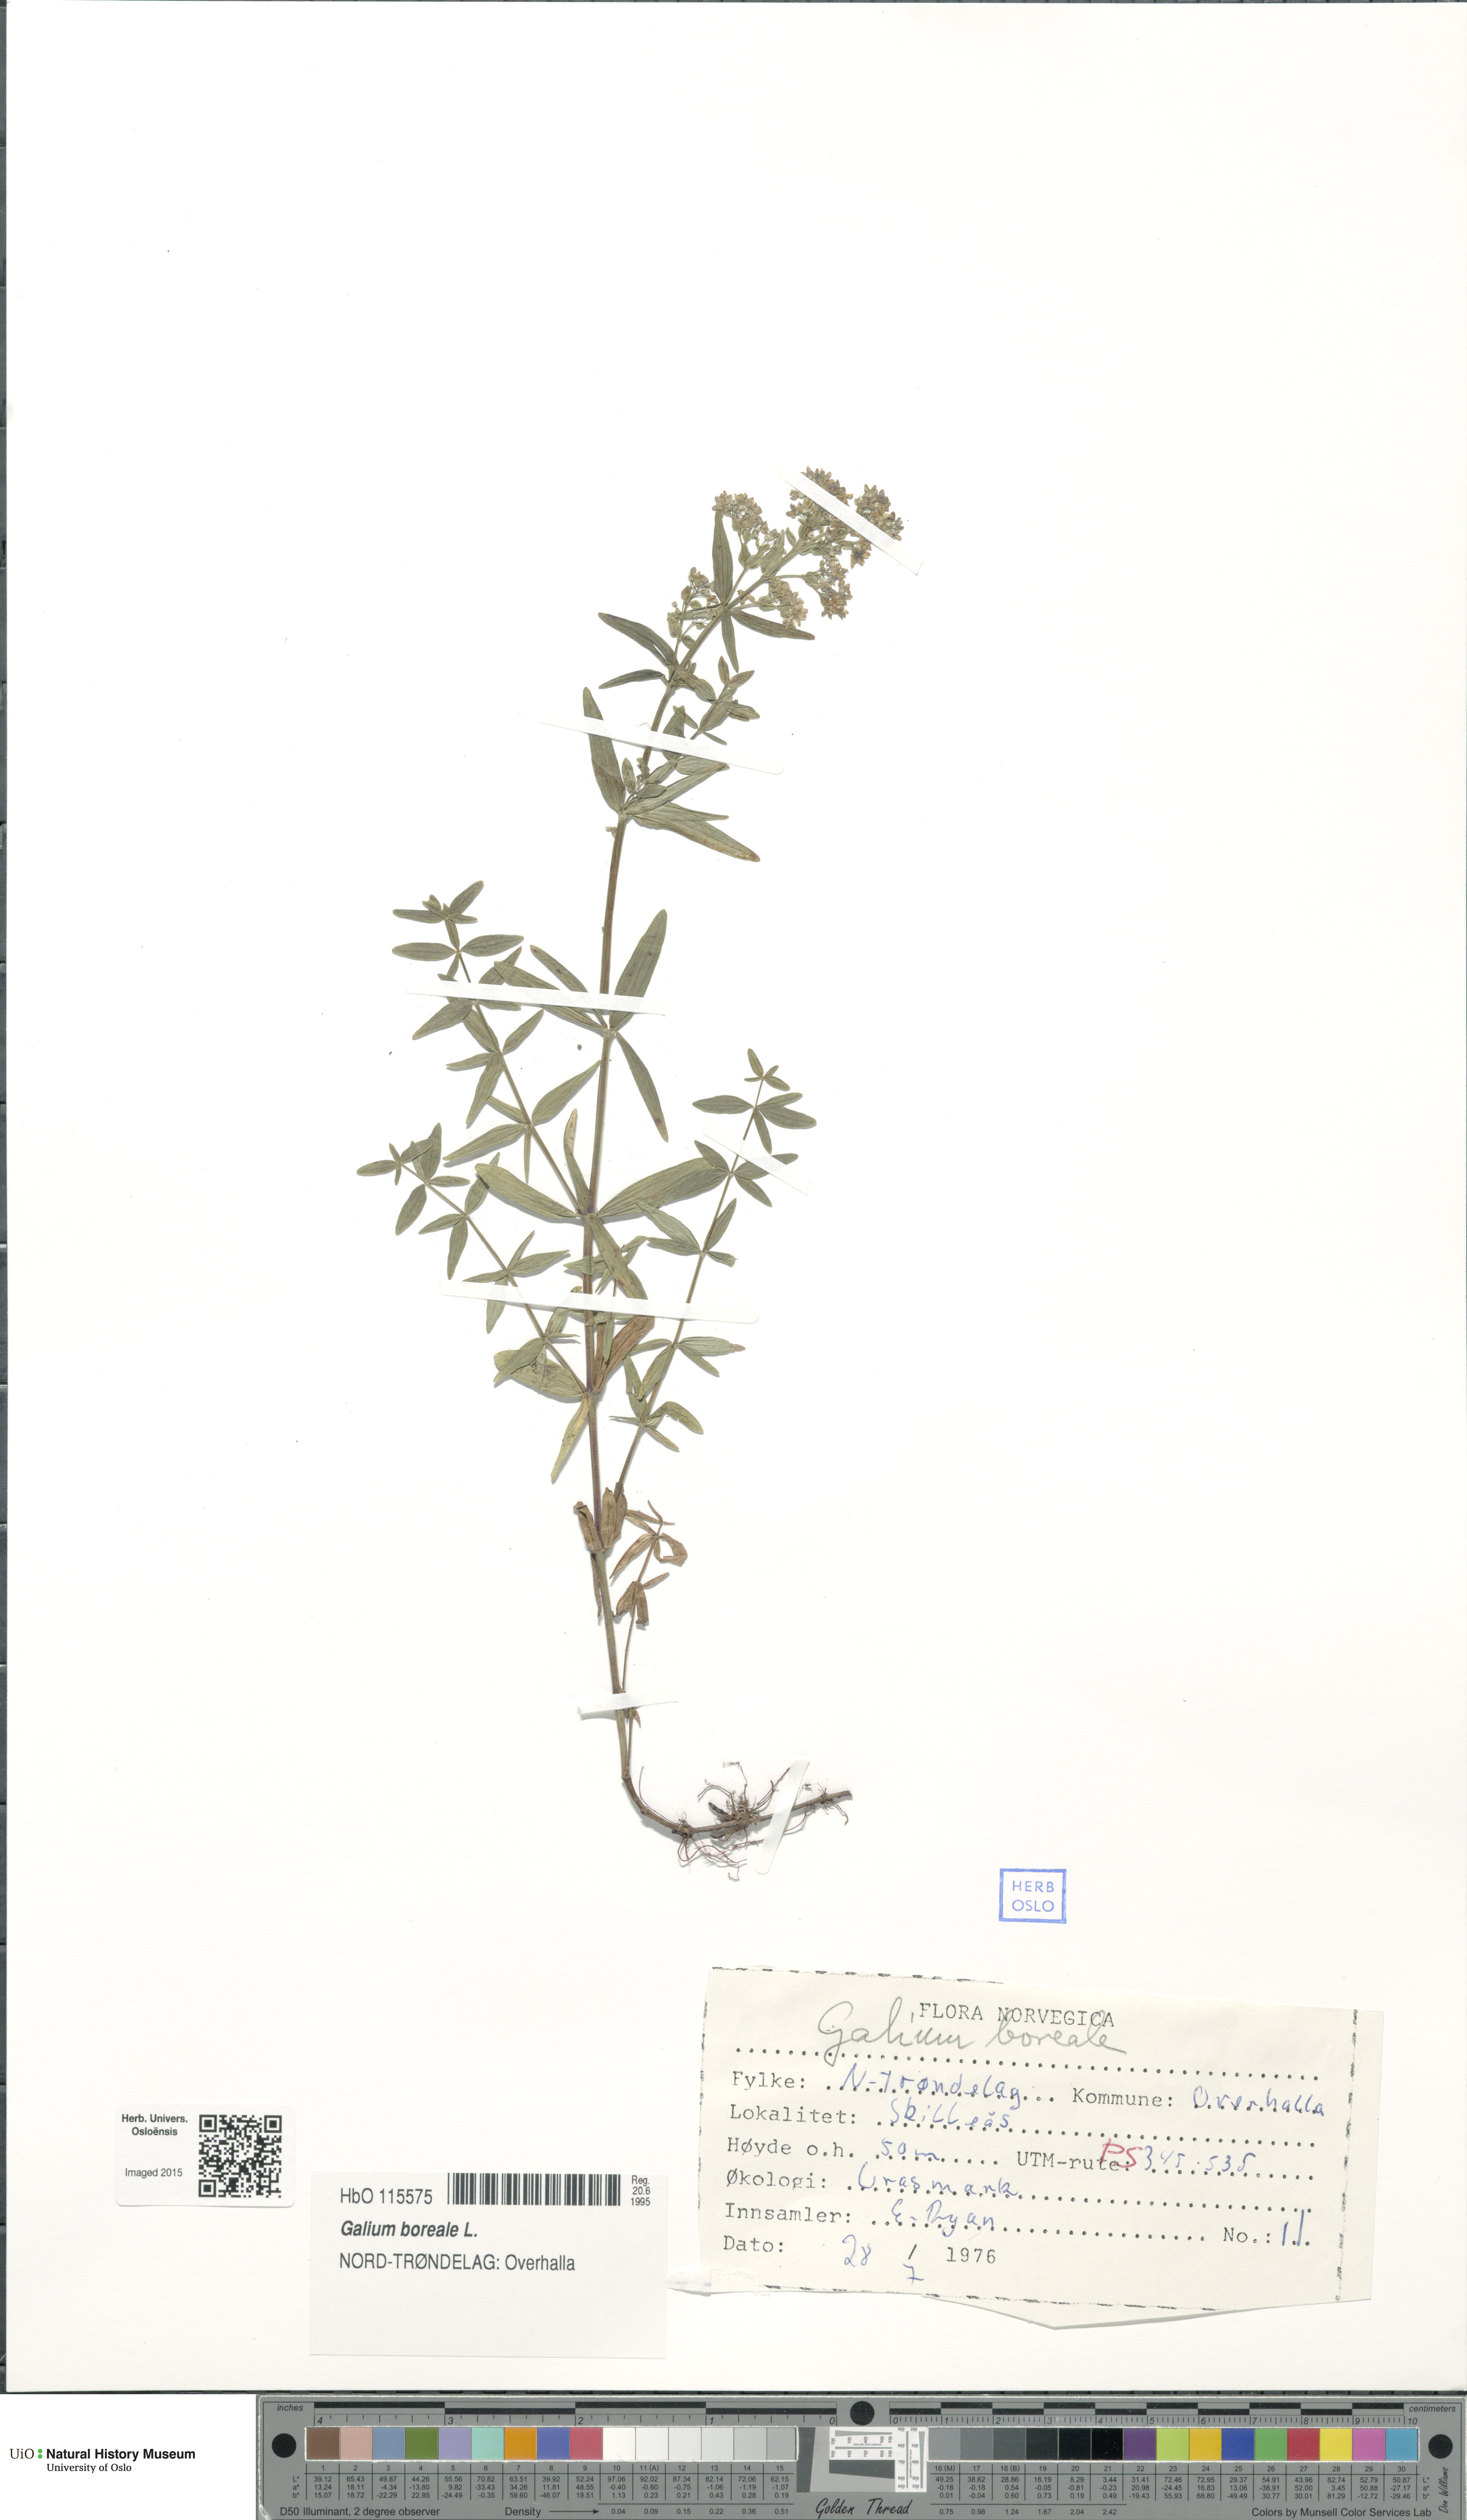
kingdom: Plantae
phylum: Tracheophyta
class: Magnoliopsida
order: Gentianales
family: Rubiaceae
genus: Galium
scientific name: Galium boreale
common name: Northern bedstraw
